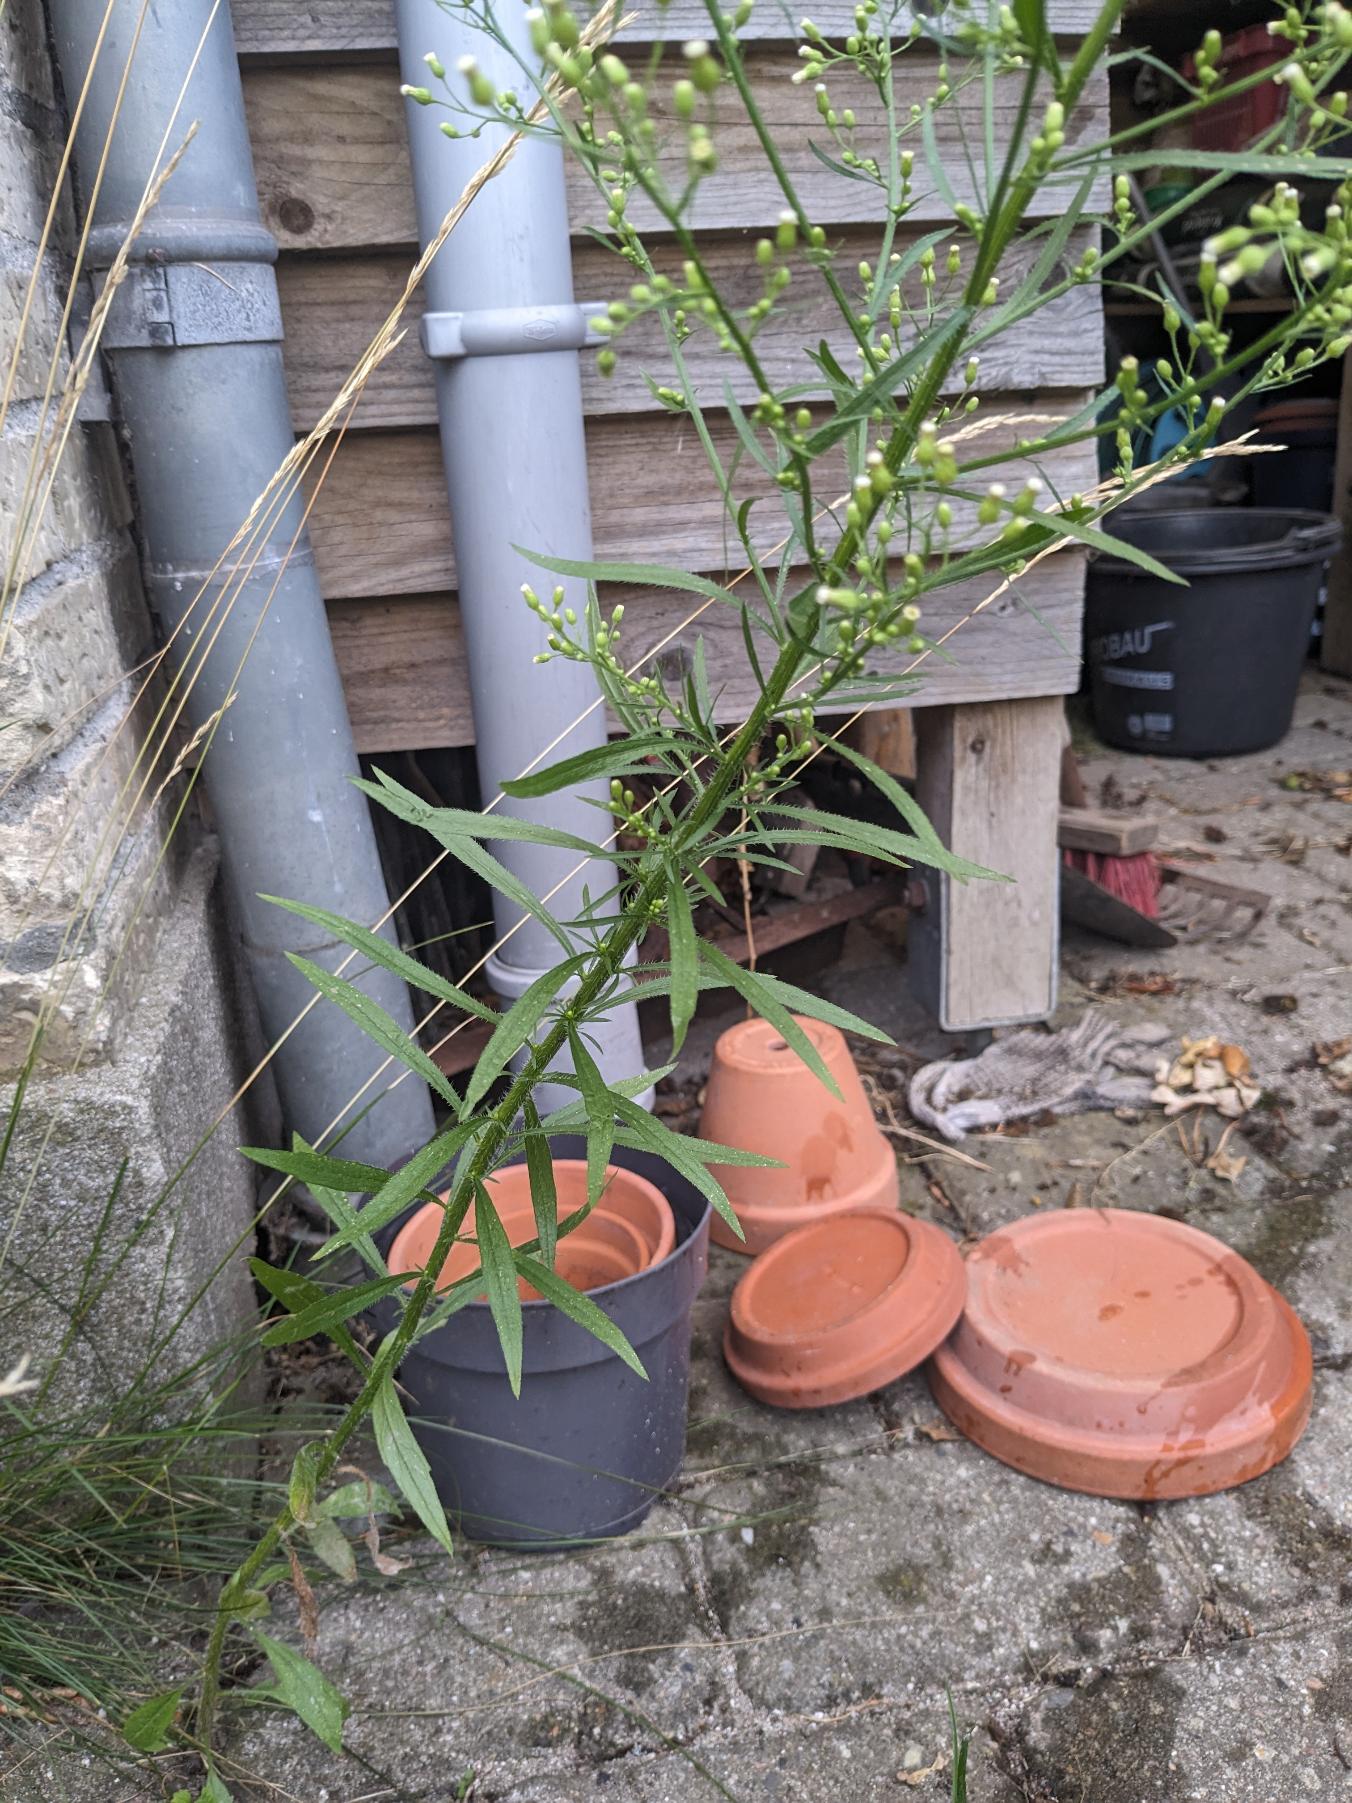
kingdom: Plantae
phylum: Tracheophyta
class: Magnoliopsida
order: Asterales
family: Asteraceae
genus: Erigeron
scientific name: Erigeron canadensis
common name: Kanadisk bakkestjerne
